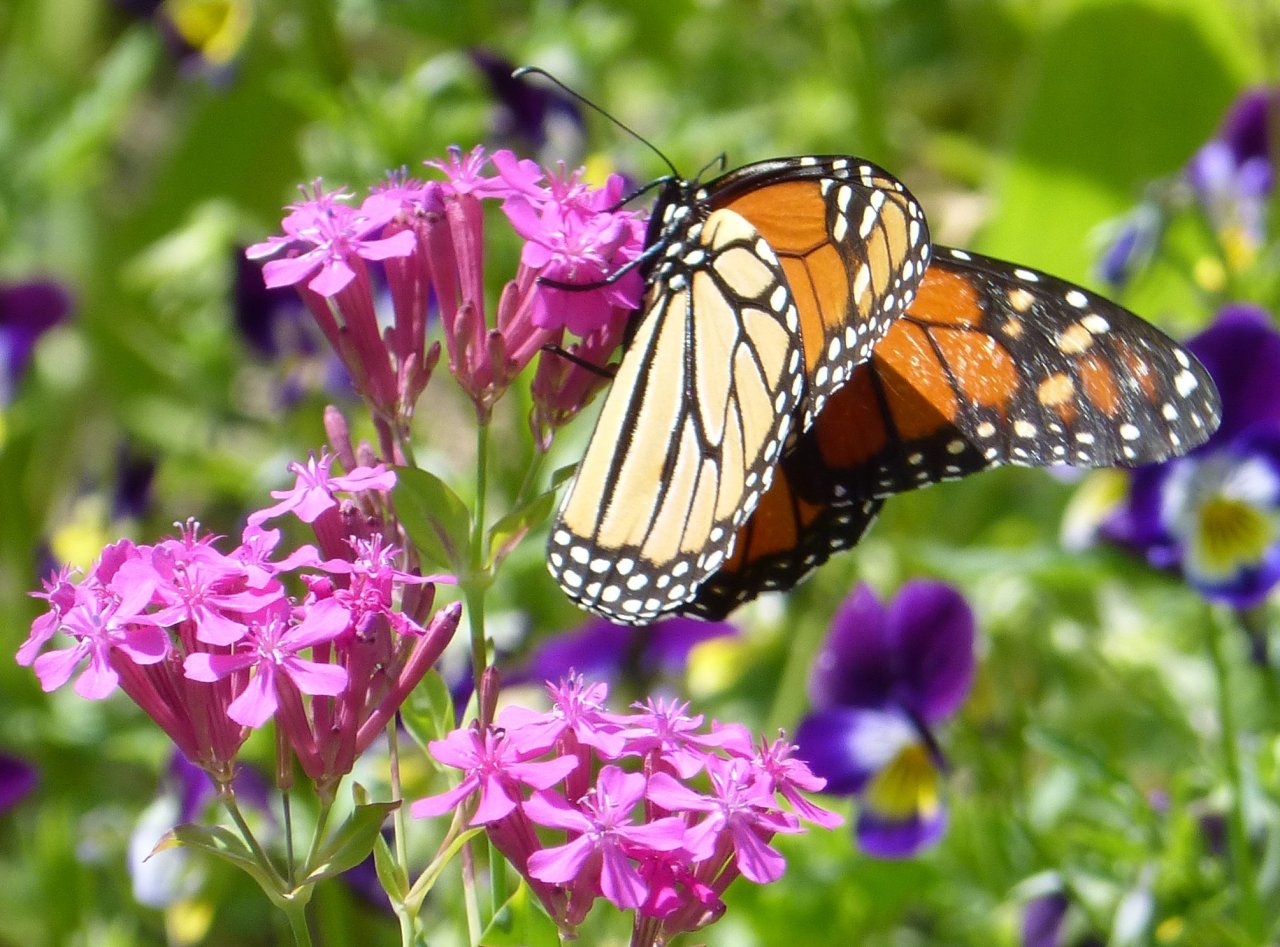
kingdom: Animalia
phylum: Arthropoda
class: Insecta
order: Lepidoptera
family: Nymphalidae
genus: Danaus
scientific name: Danaus plexippus
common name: Monarch
